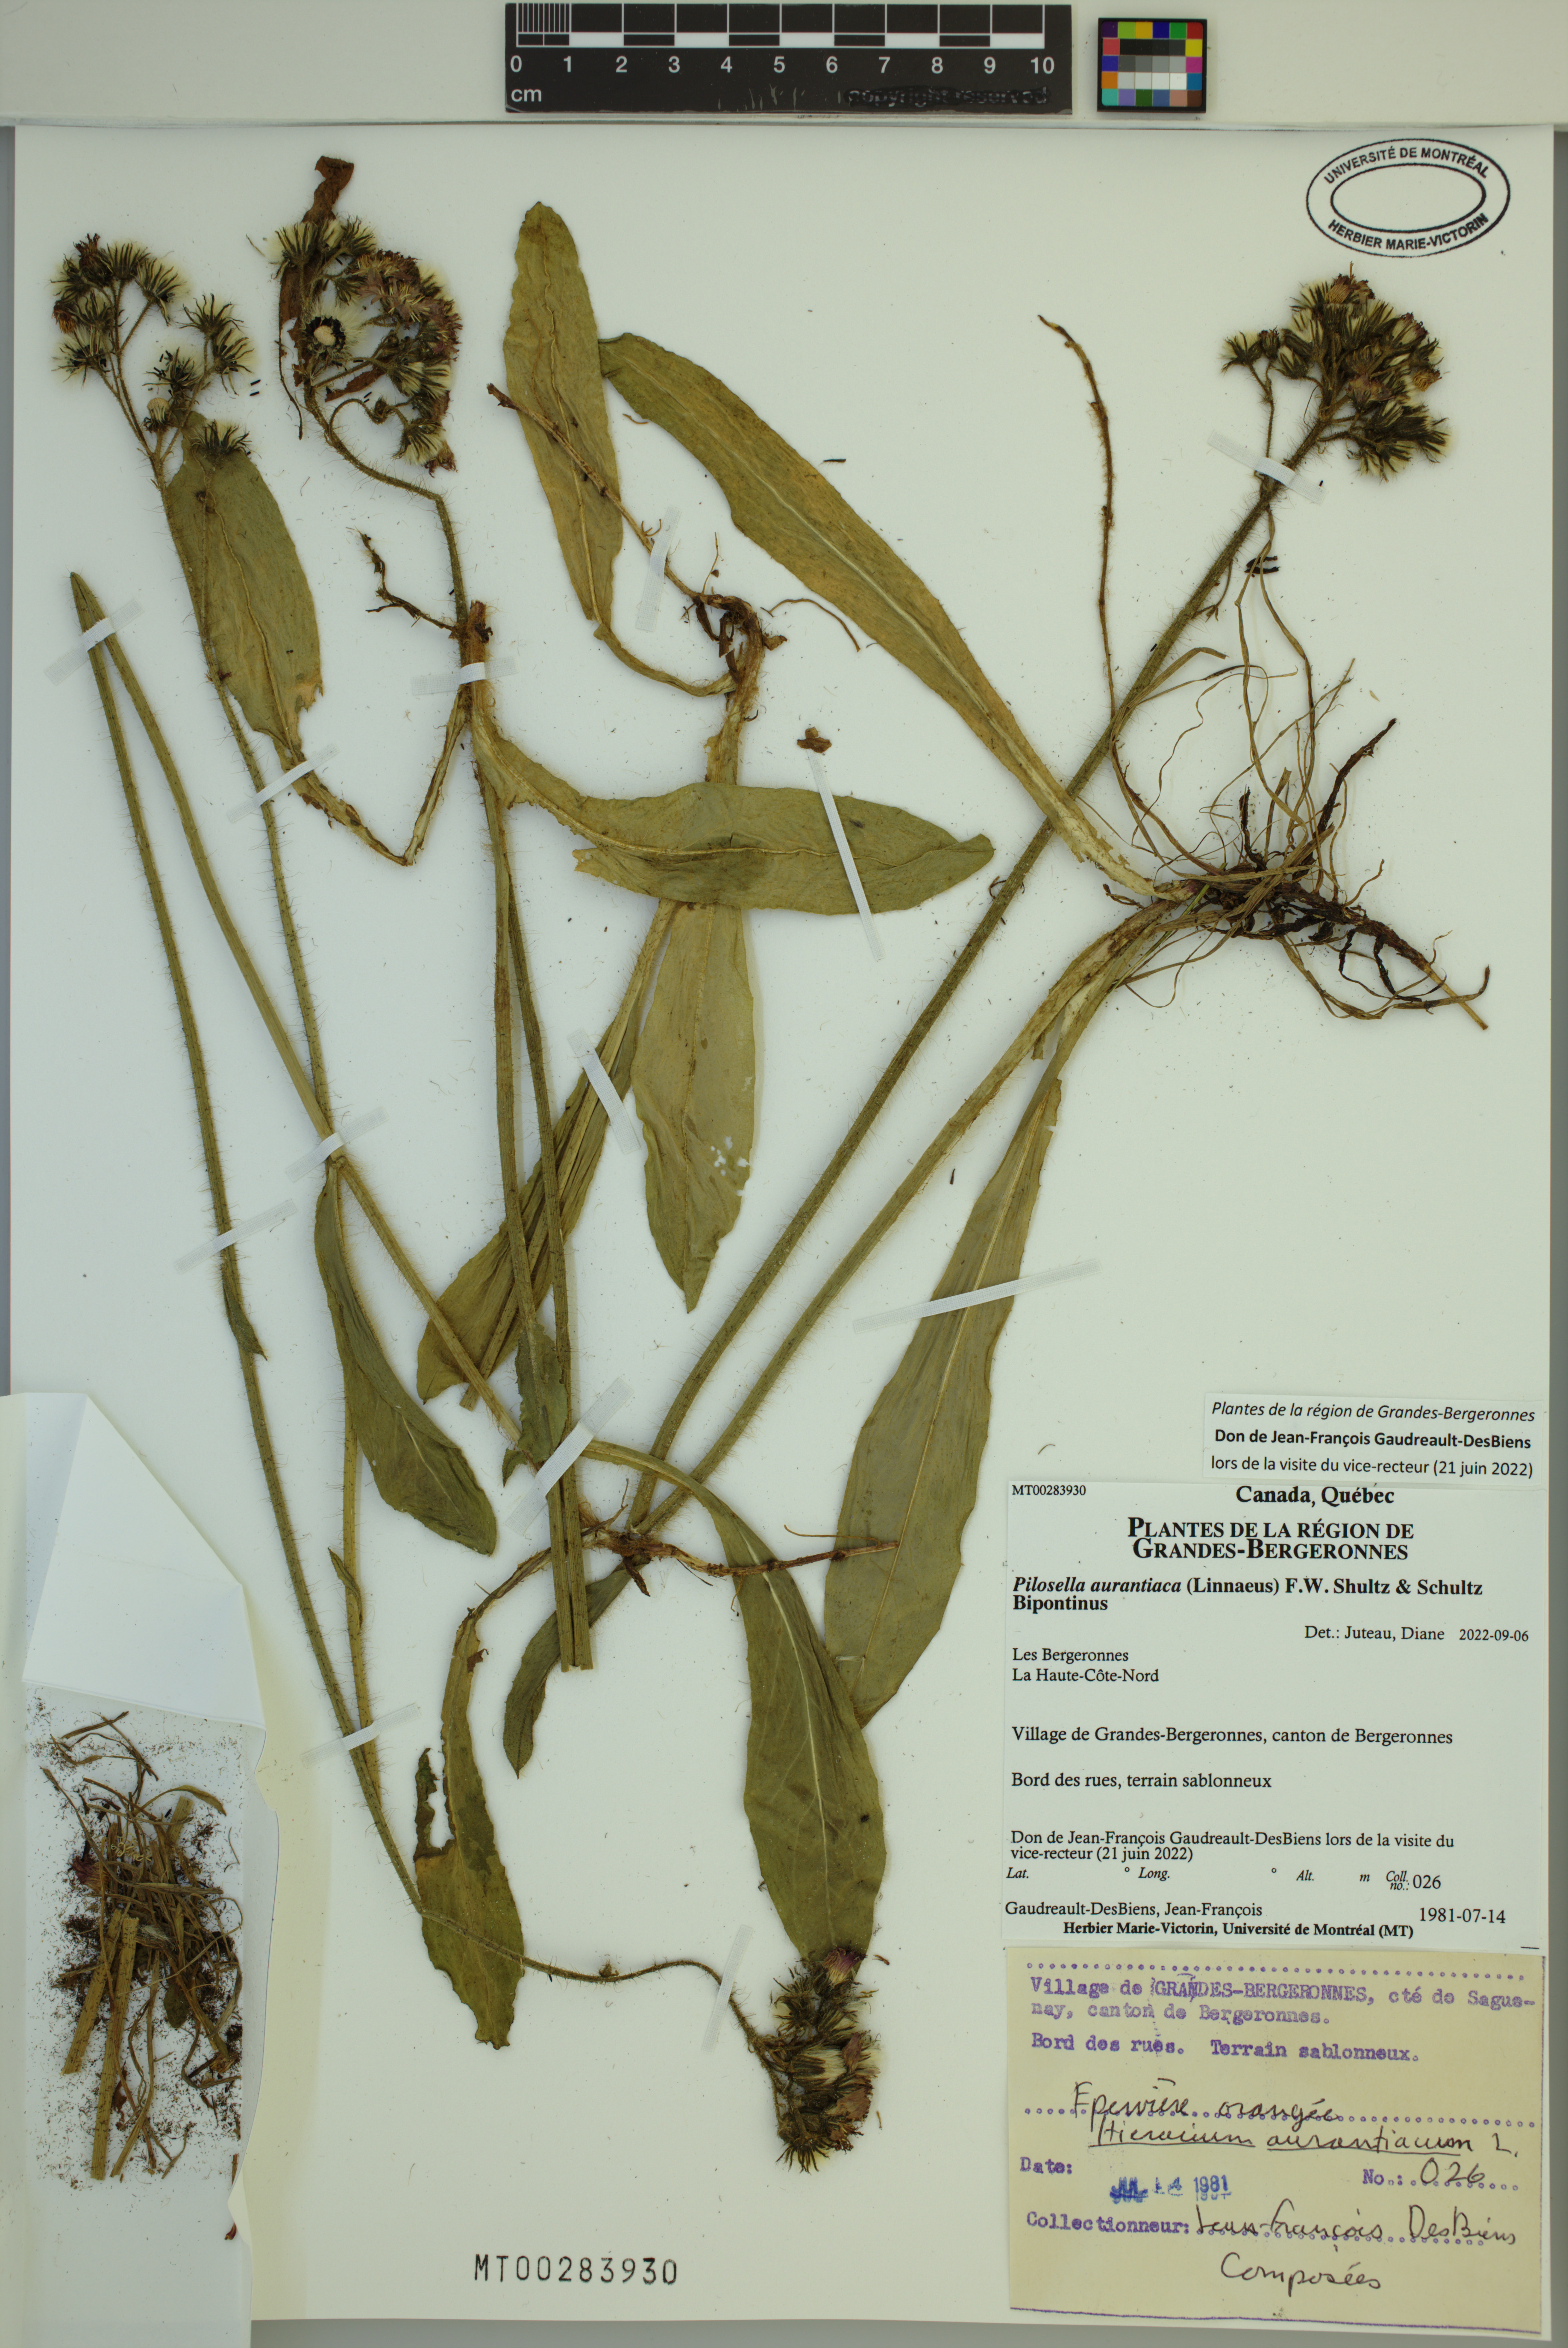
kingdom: Plantae
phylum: Tracheophyta
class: Magnoliopsida
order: Asterales
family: Asteraceae
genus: Pilosella
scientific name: Pilosella aurantiaca
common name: Fox-and-cubs
